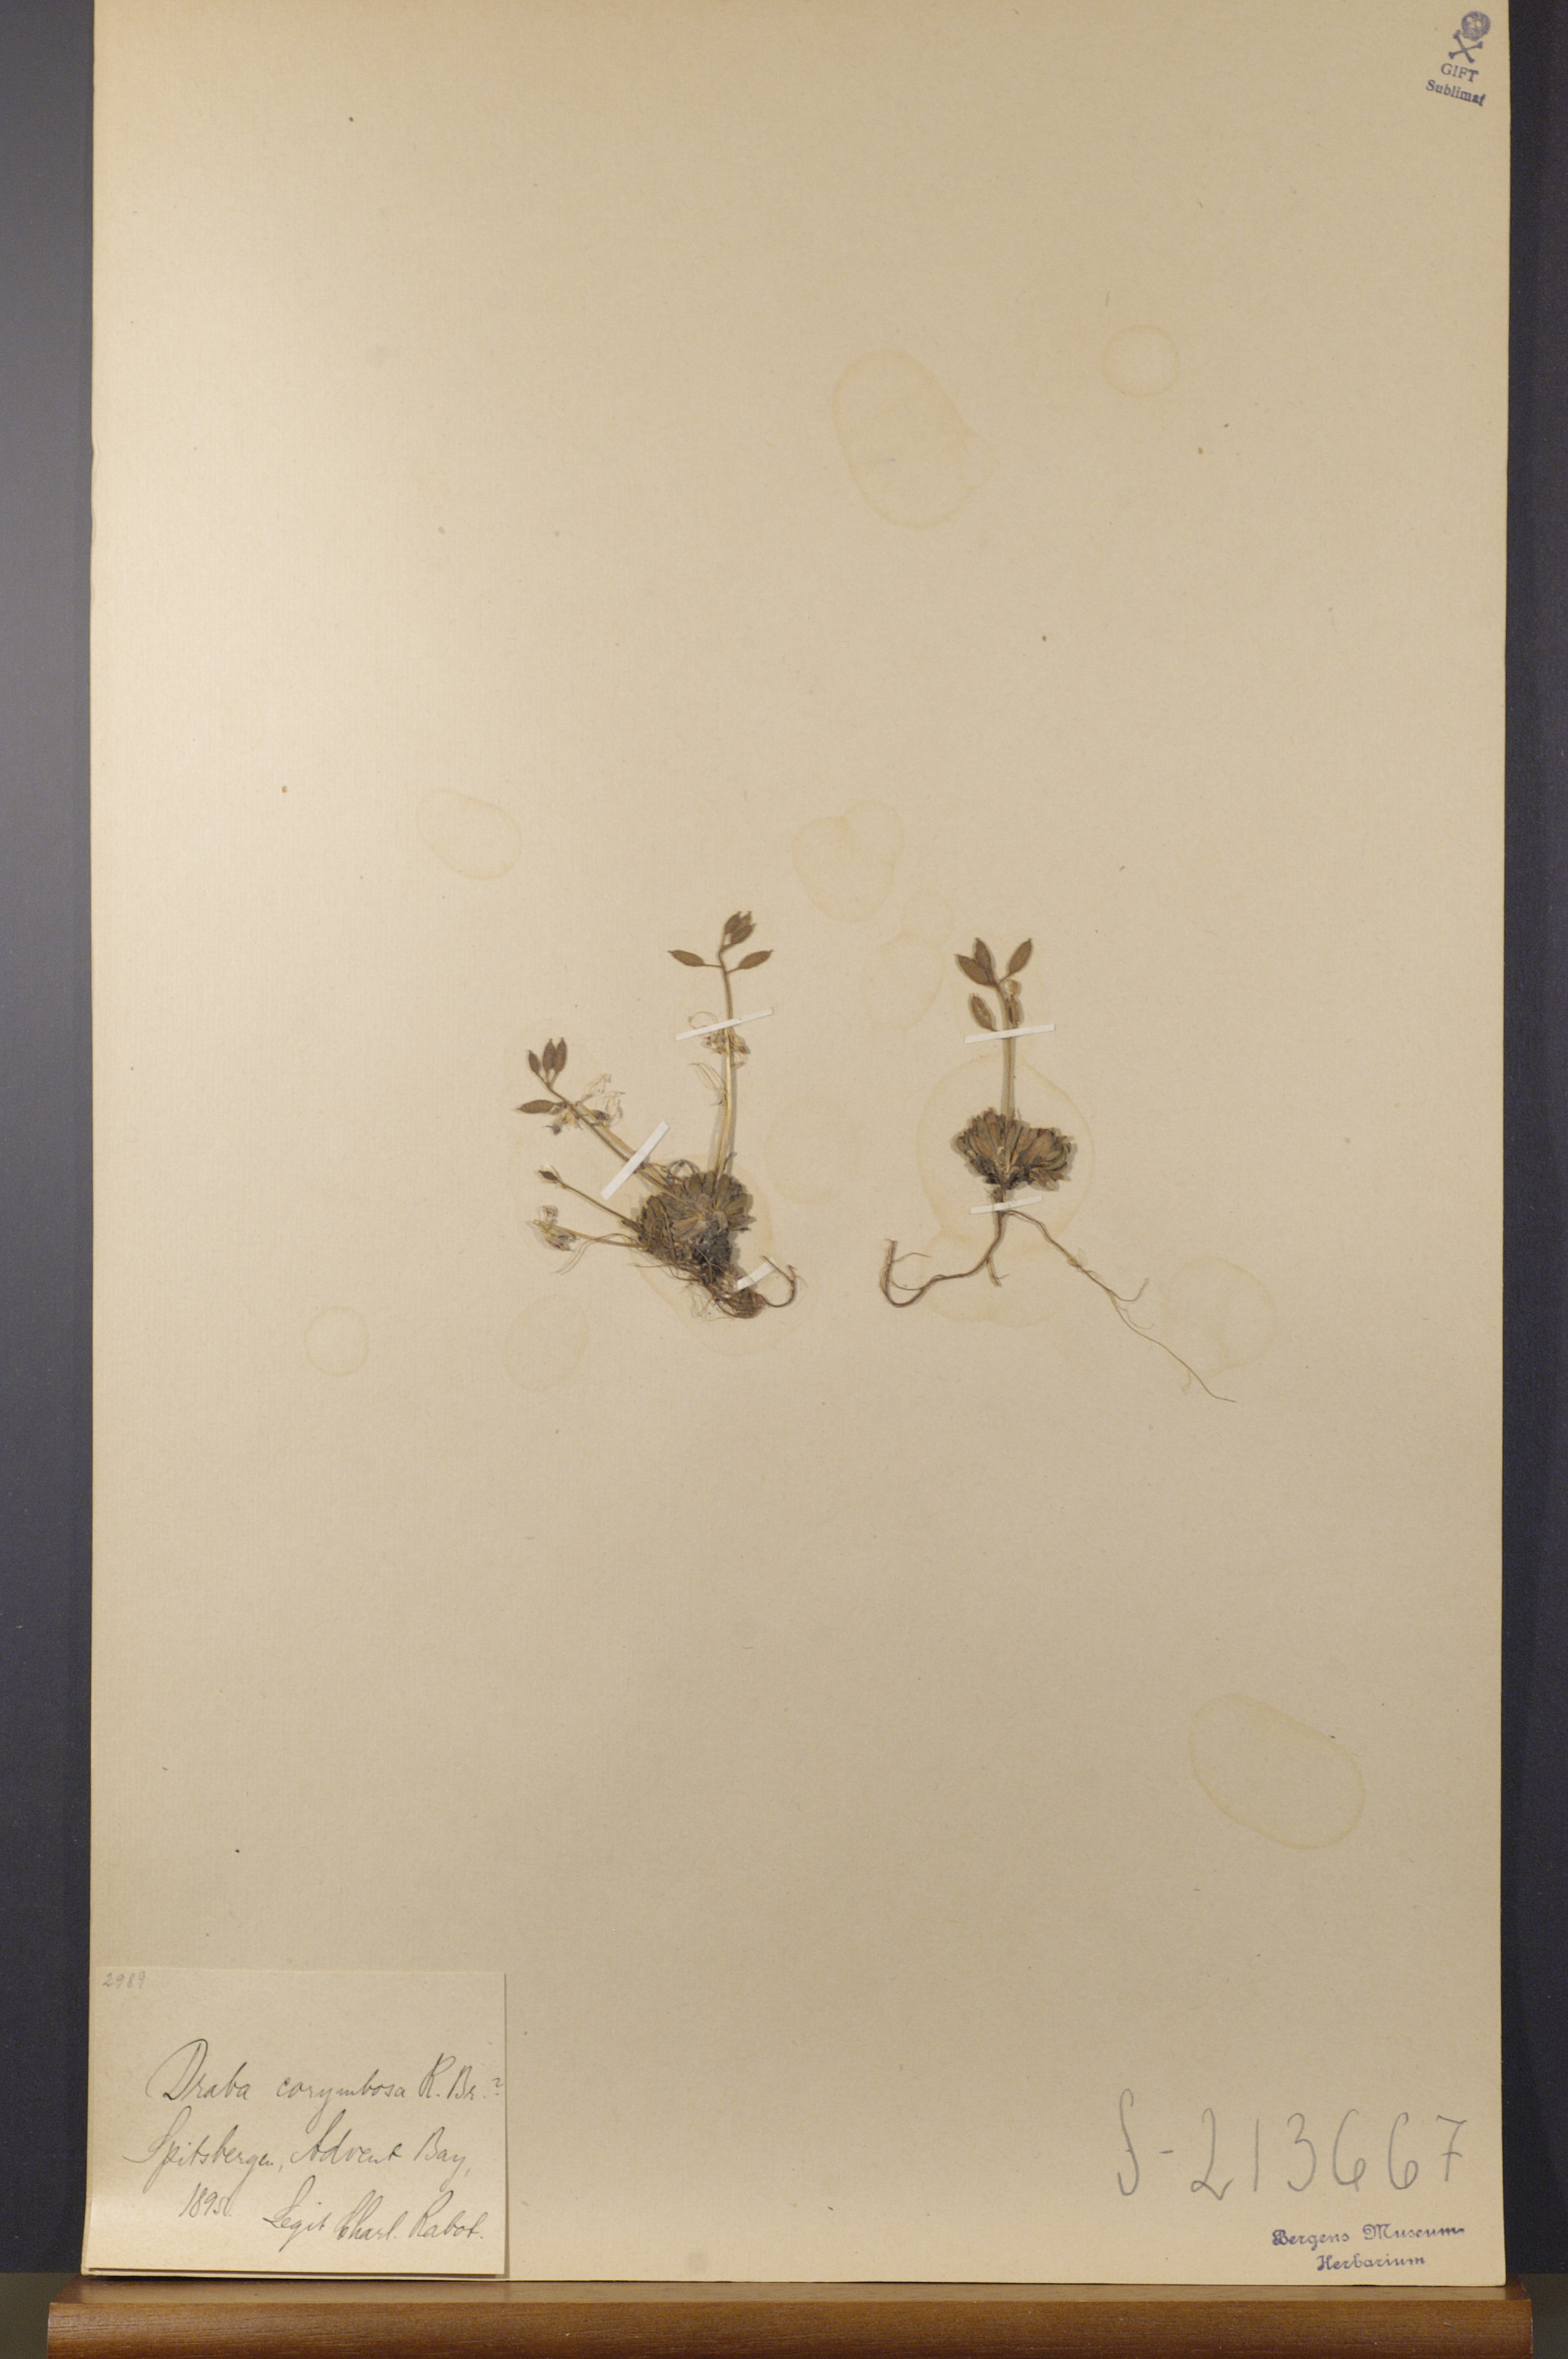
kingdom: Plantae
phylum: Tracheophyta
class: Magnoliopsida
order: Brassicales
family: Brassicaceae
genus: Draba
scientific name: Draba corymbosa
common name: Cushion whitlow-grass
